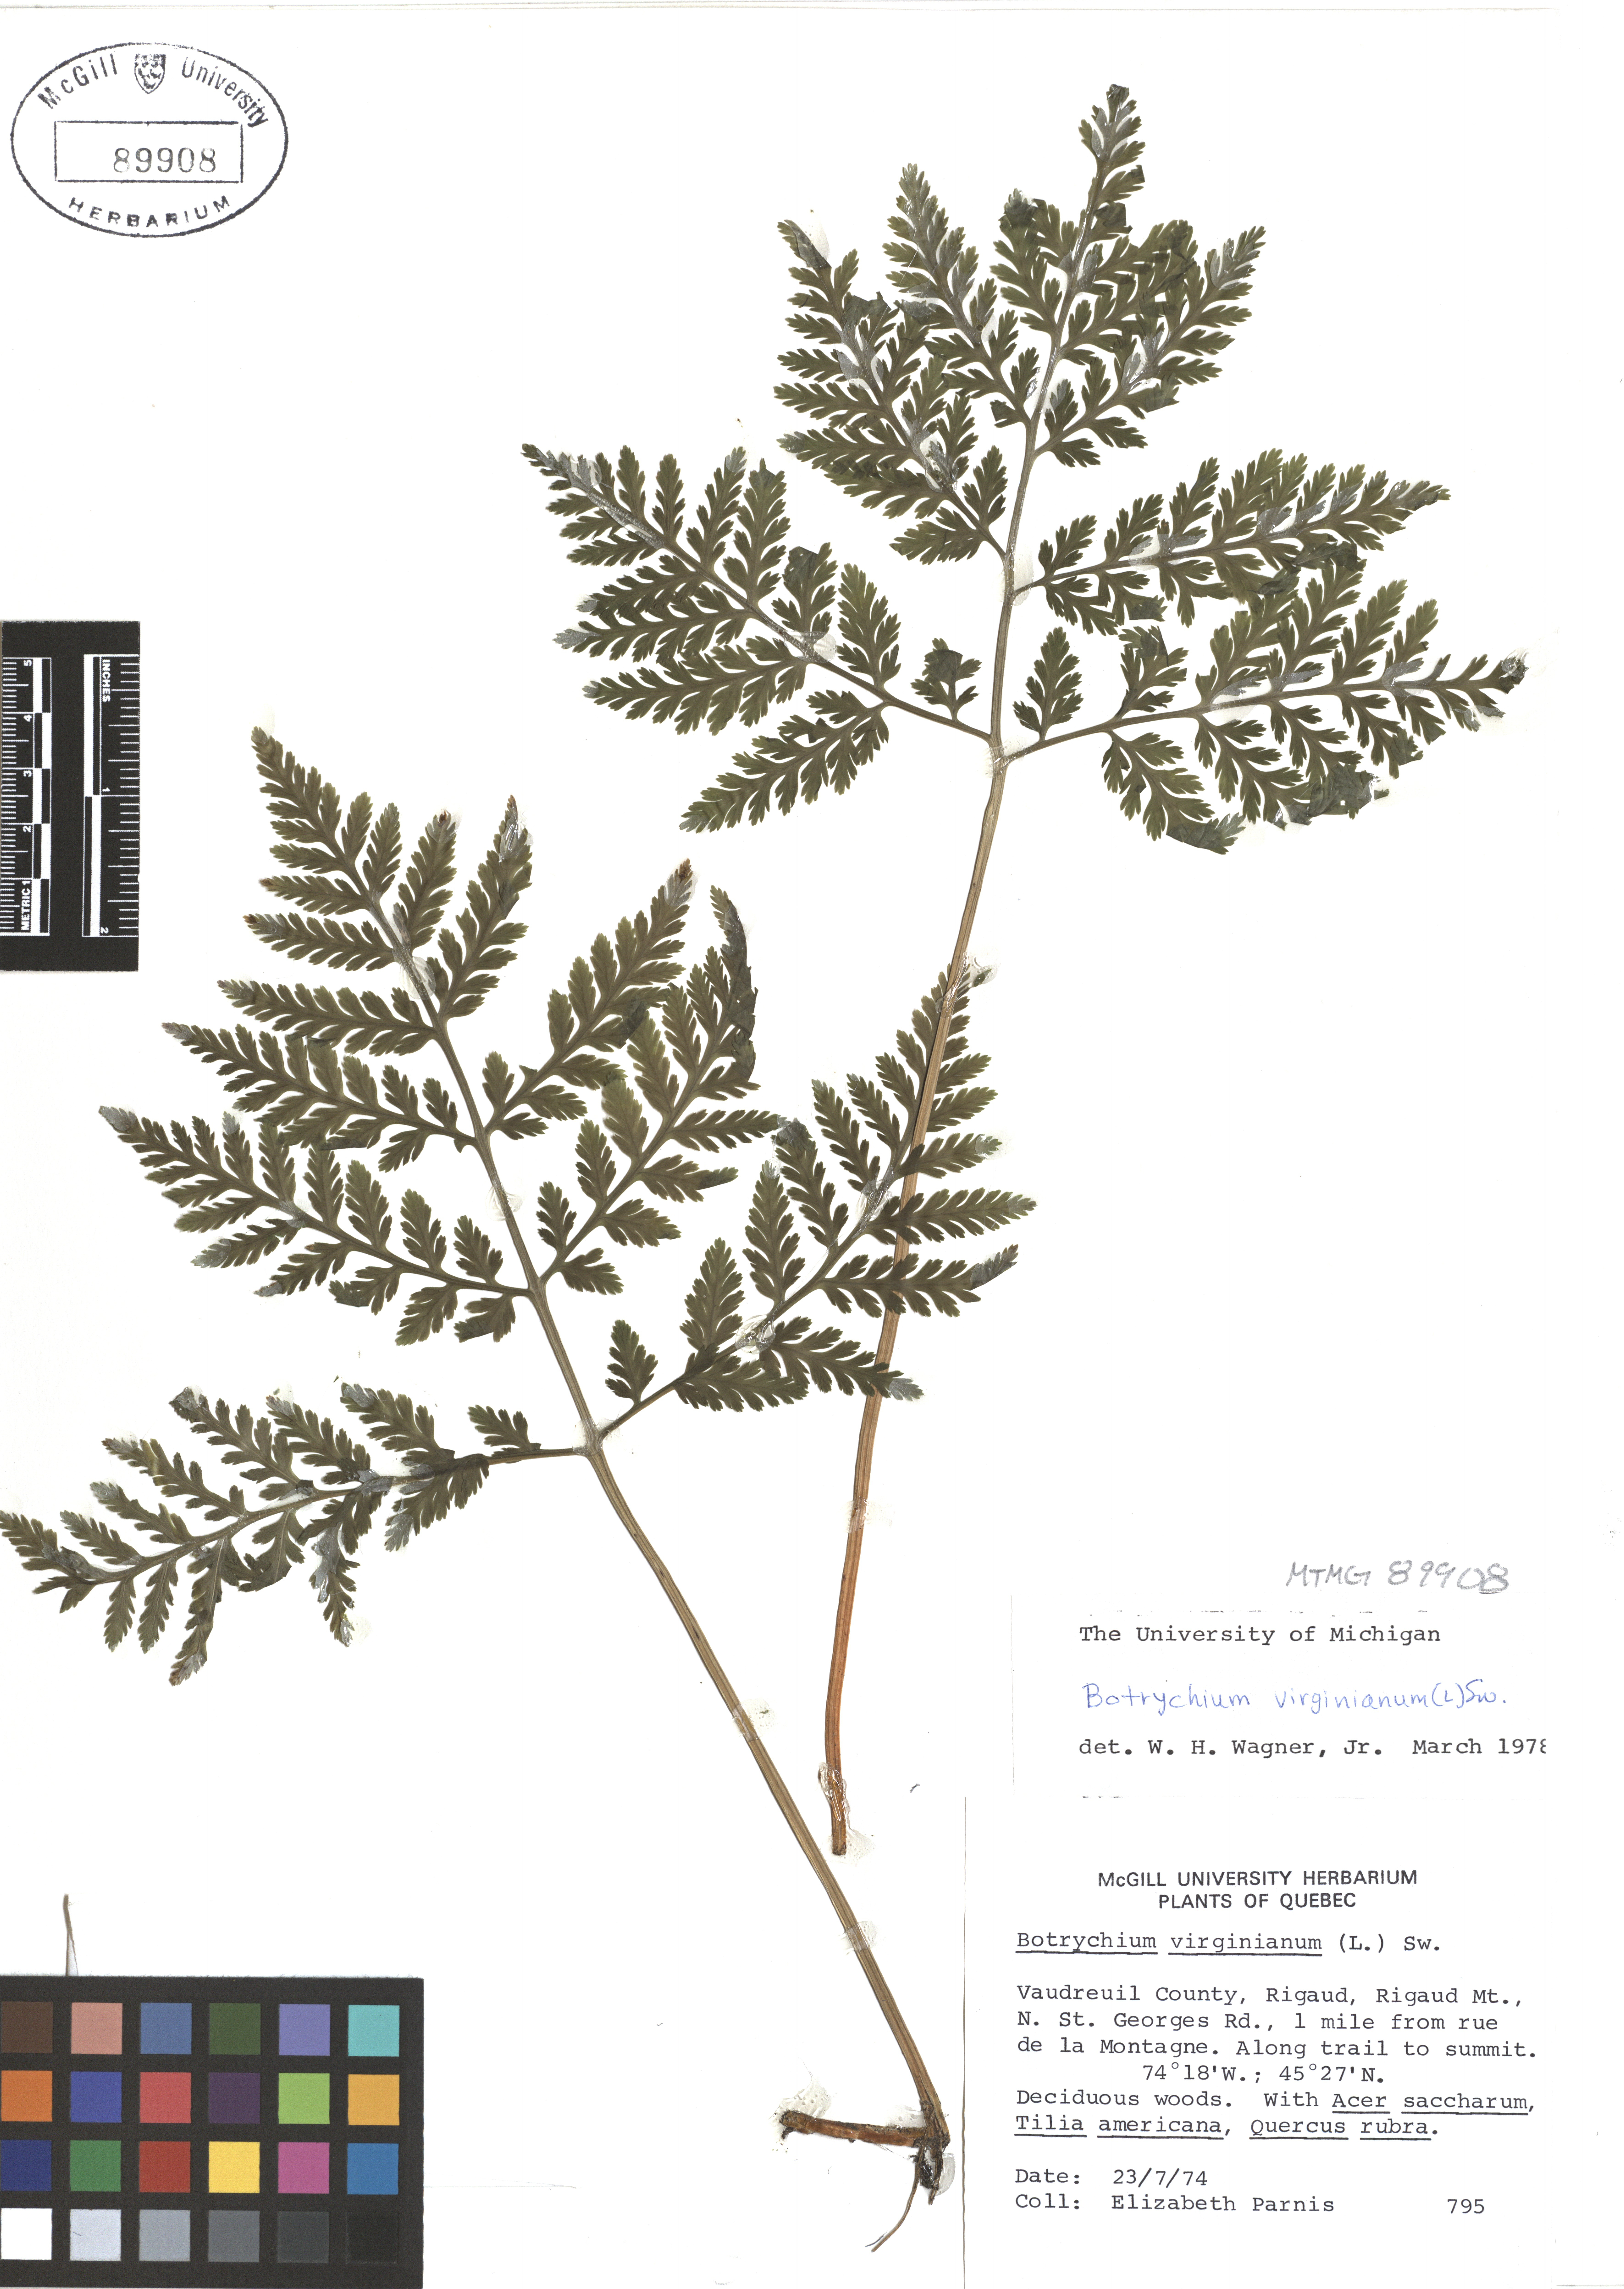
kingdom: Plantae
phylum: Tracheophyta
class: Polypodiopsida
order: Ophioglossales
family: Ophioglossaceae
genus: Botrypus
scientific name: Botrypus virginianus
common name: Common grapefern
